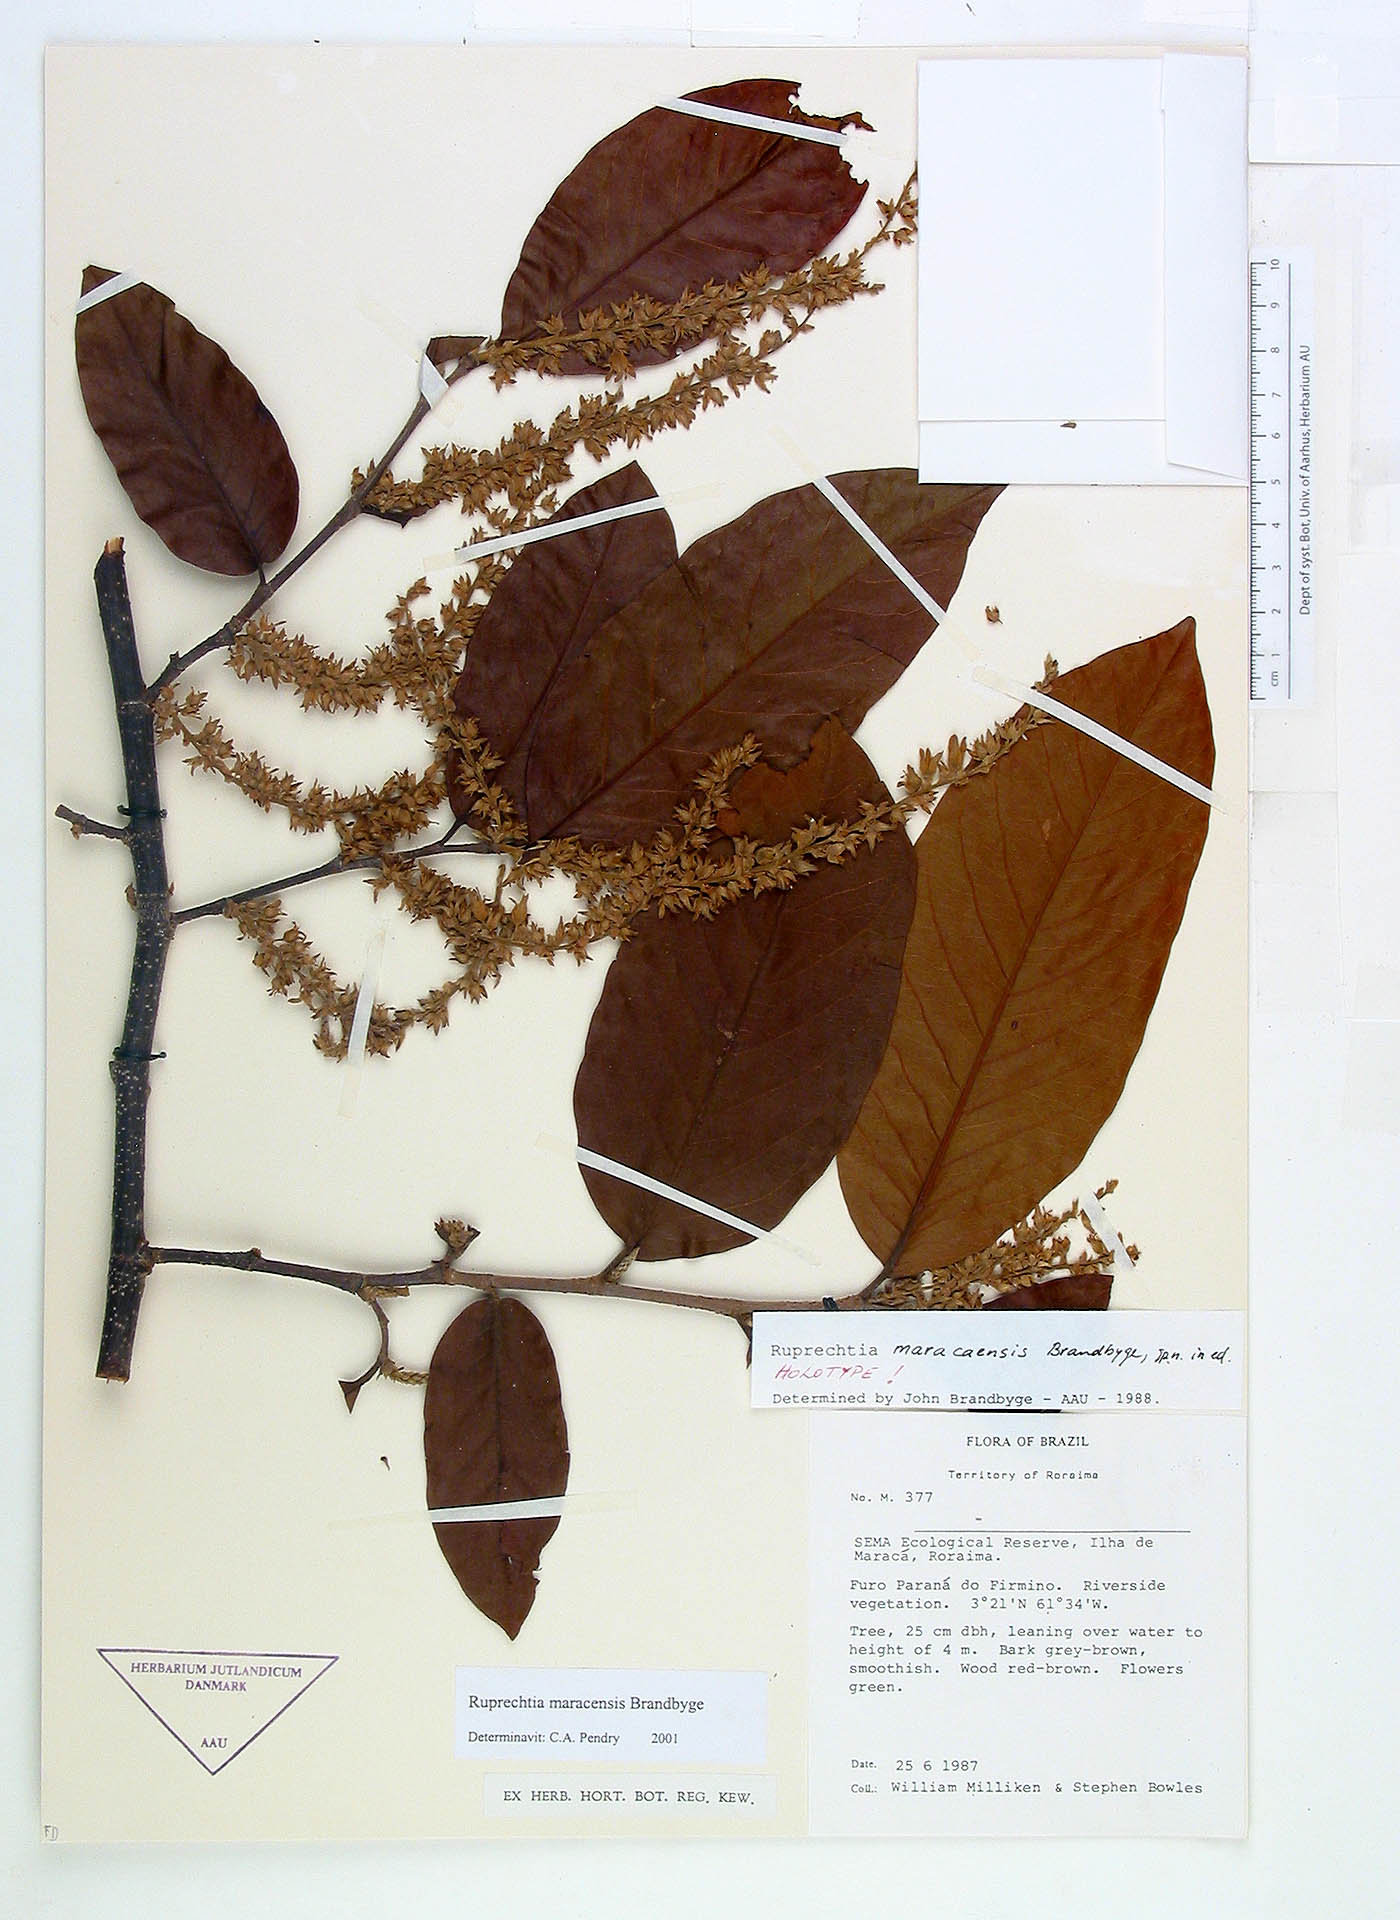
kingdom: Plantae
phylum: Tracheophyta
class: Magnoliopsida
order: Caryophyllales
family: Polygonaceae
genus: Ruprechtia
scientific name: Ruprechtia maracaensis
